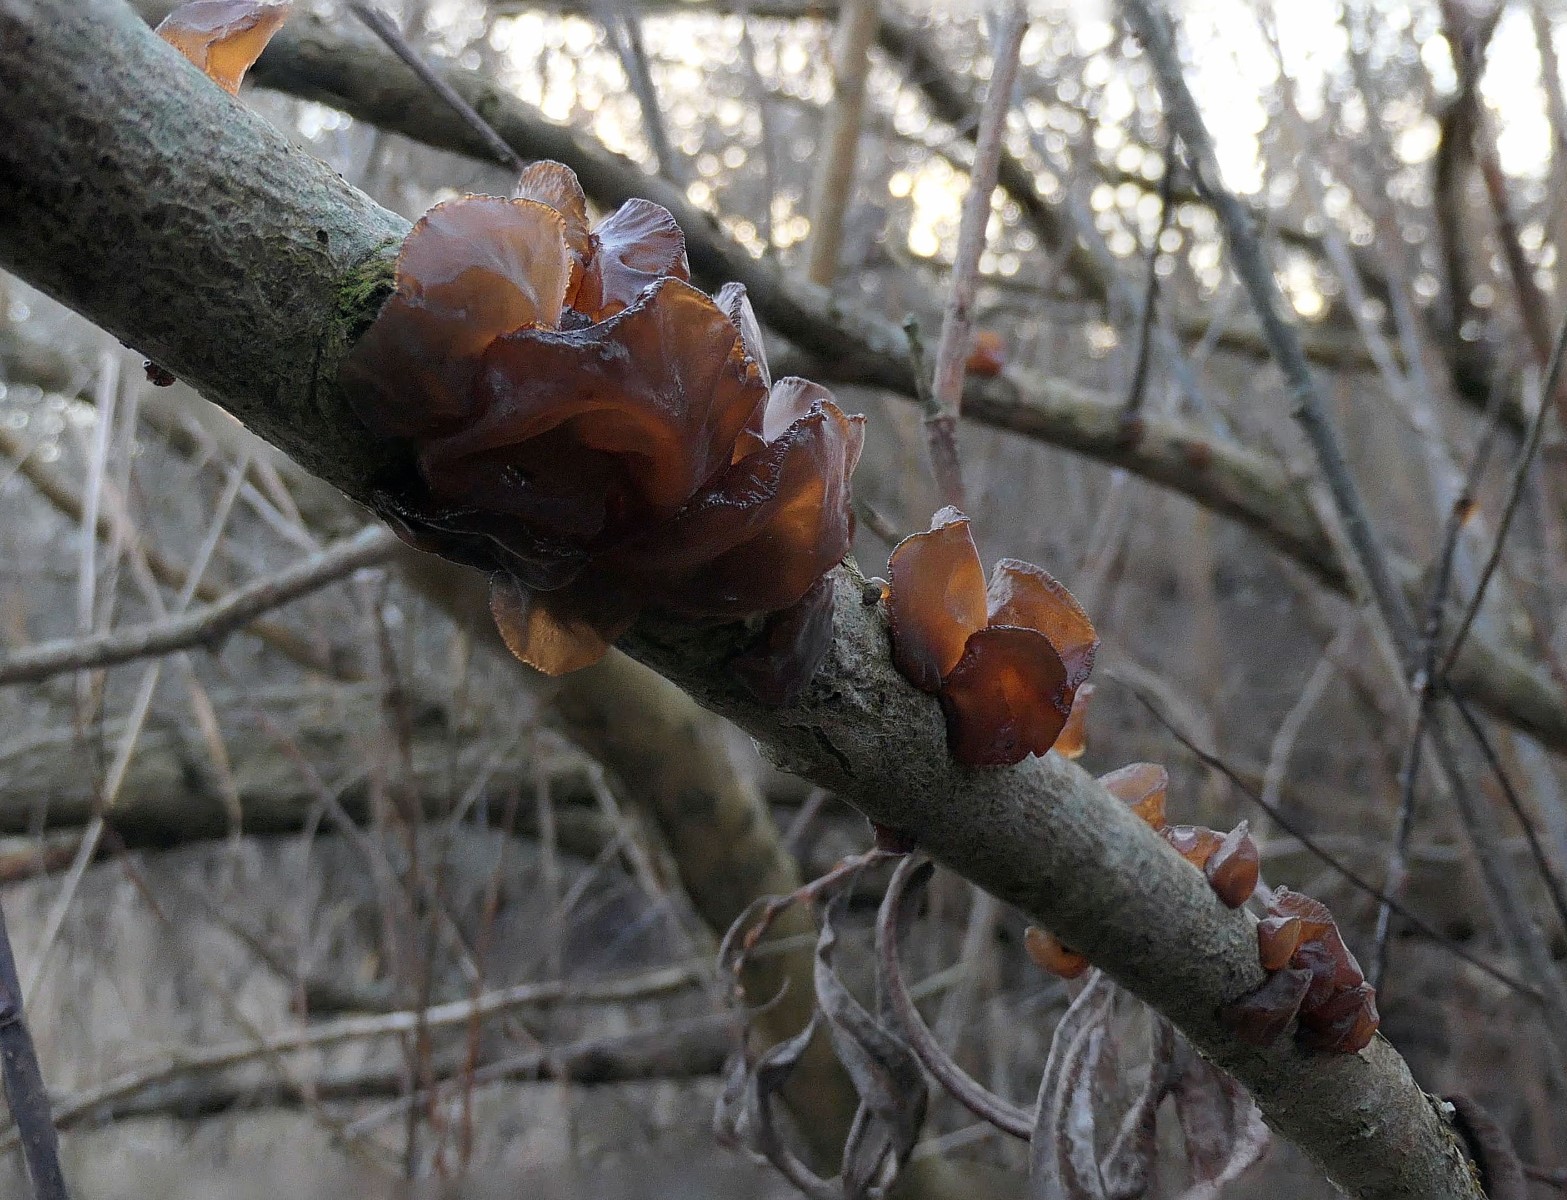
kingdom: Fungi
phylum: Basidiomycota
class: Agaricomycetes
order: Auriculariales
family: Auriculariaceae
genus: Exidia
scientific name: Exidia recisa
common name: pile-bævretop
